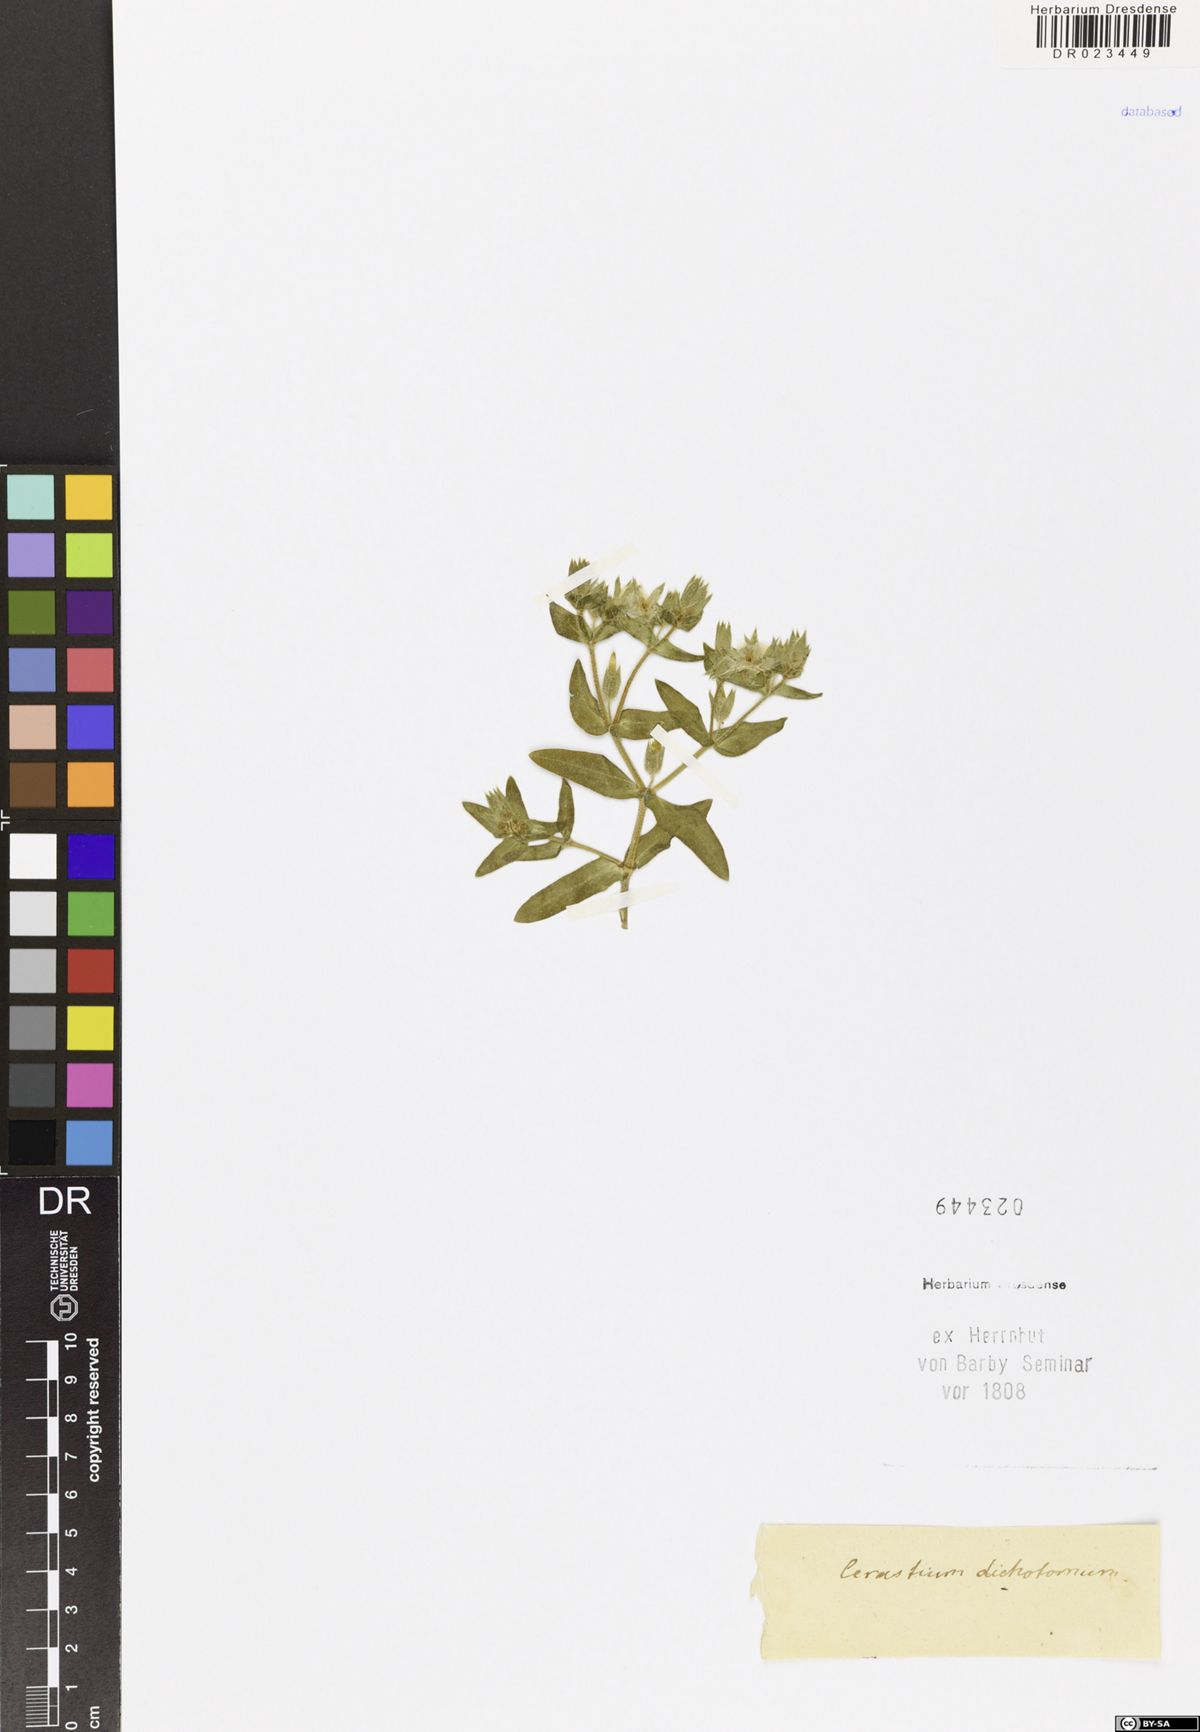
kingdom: Plantae
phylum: Tracheophyta
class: Magnoliopsida
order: Caryophyllales
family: Caryophyllaceae
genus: Cerastium
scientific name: Cerastium dichotomum
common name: Forked chickweed
